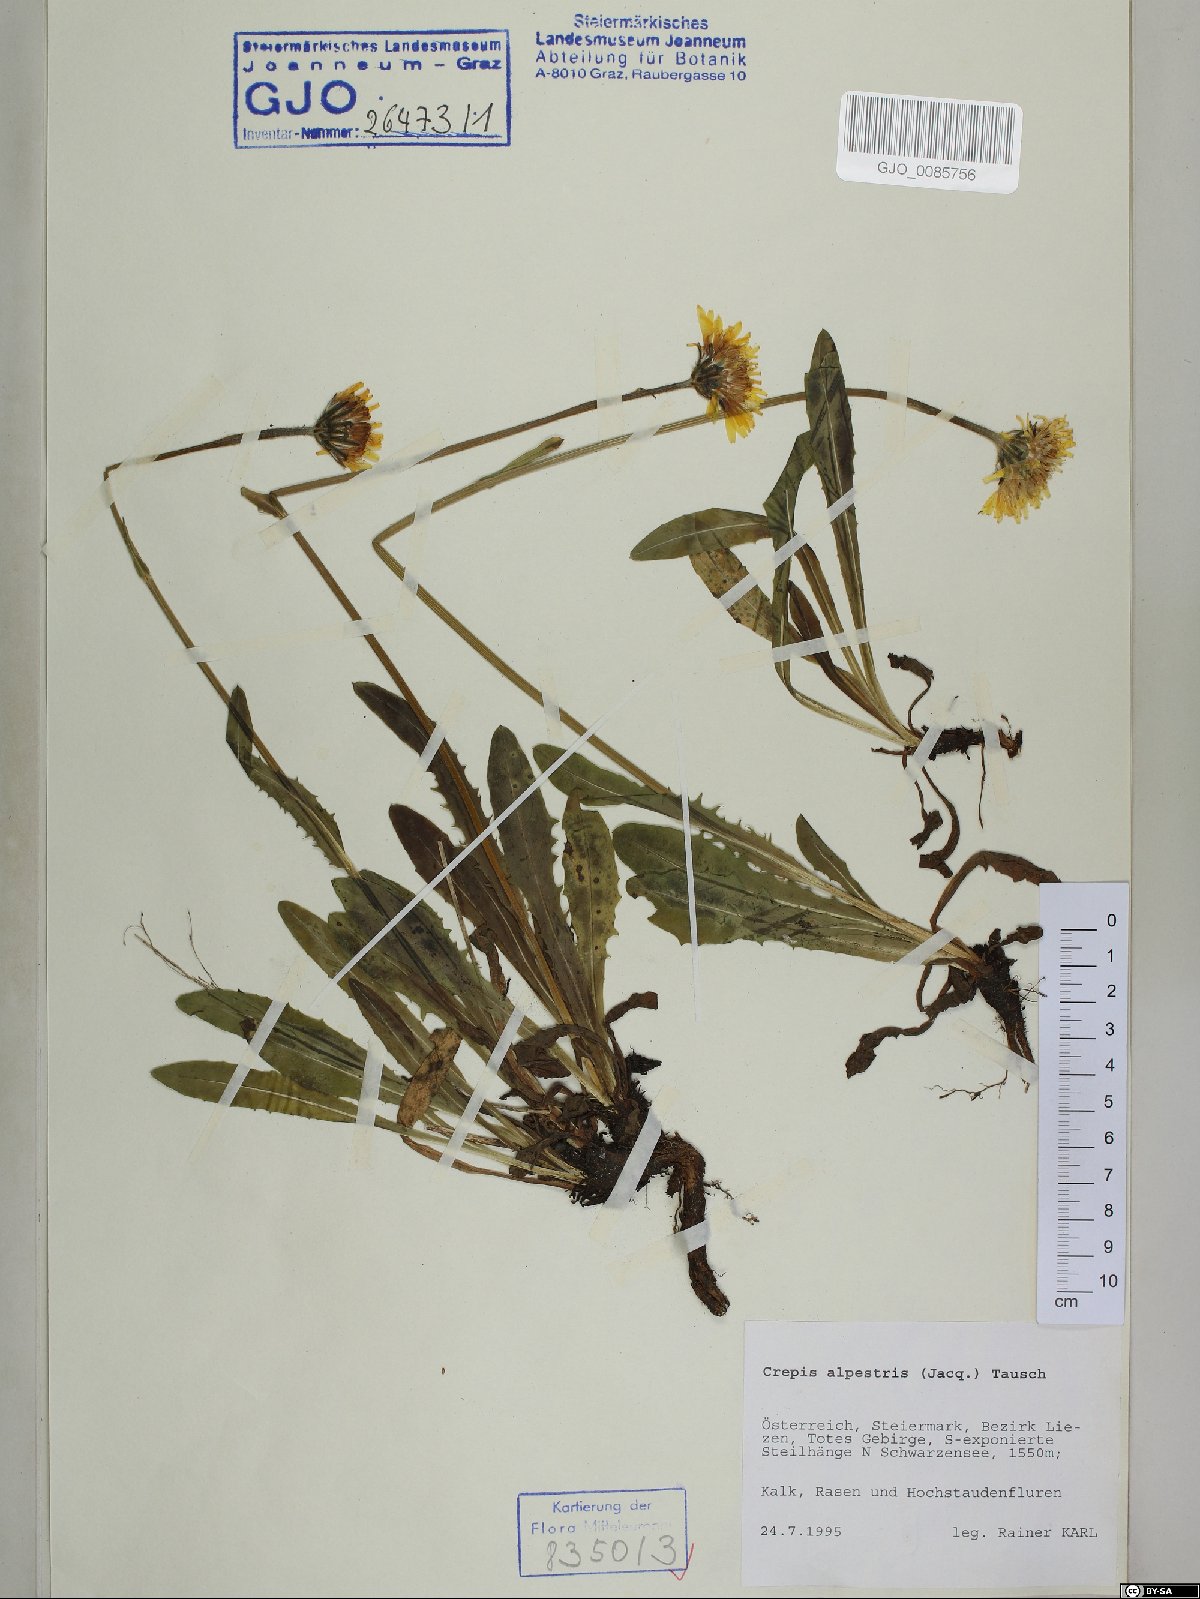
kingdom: Plantae
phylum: Tracheophyta
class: Magnoliopsida
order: Asterales
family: Asteraceae
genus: Crepis
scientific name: Crepis alpestris
